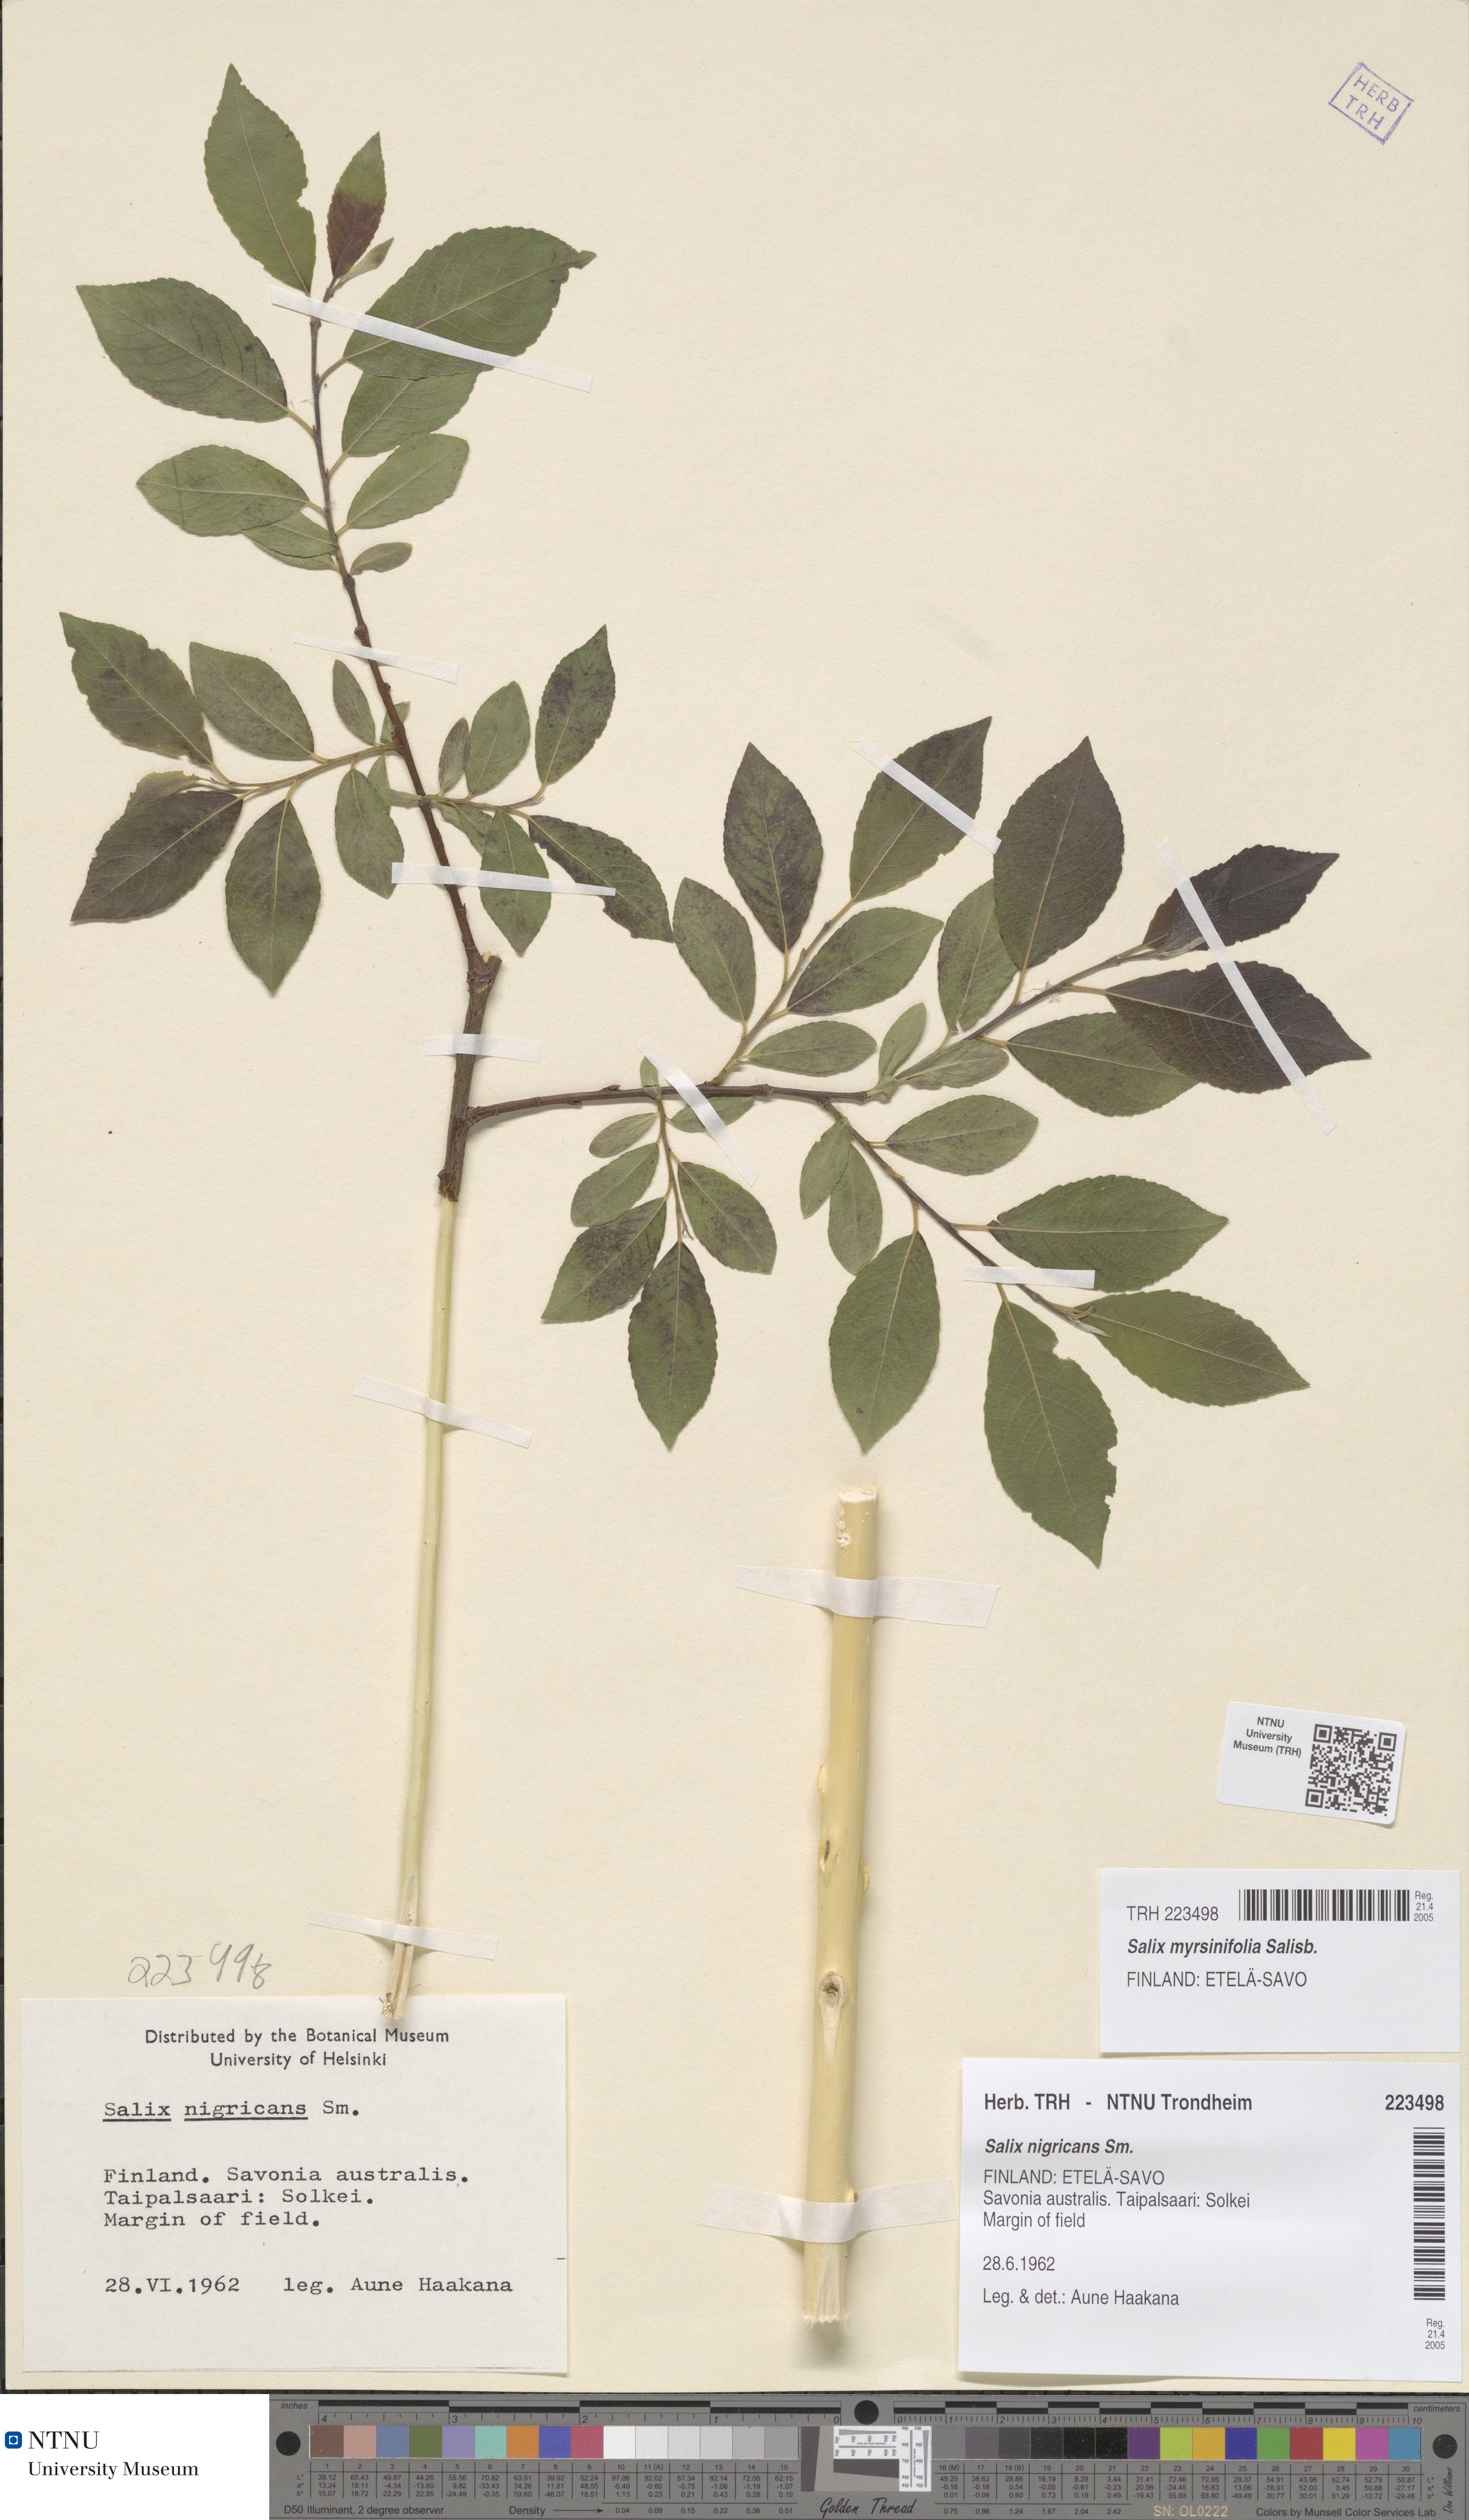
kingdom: Plantae
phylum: Tracheophyta
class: Magnoliopsida
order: Malpighiales
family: Salicaceae
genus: Salix
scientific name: Salix myrsinifolia
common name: Dark-leaved willow
